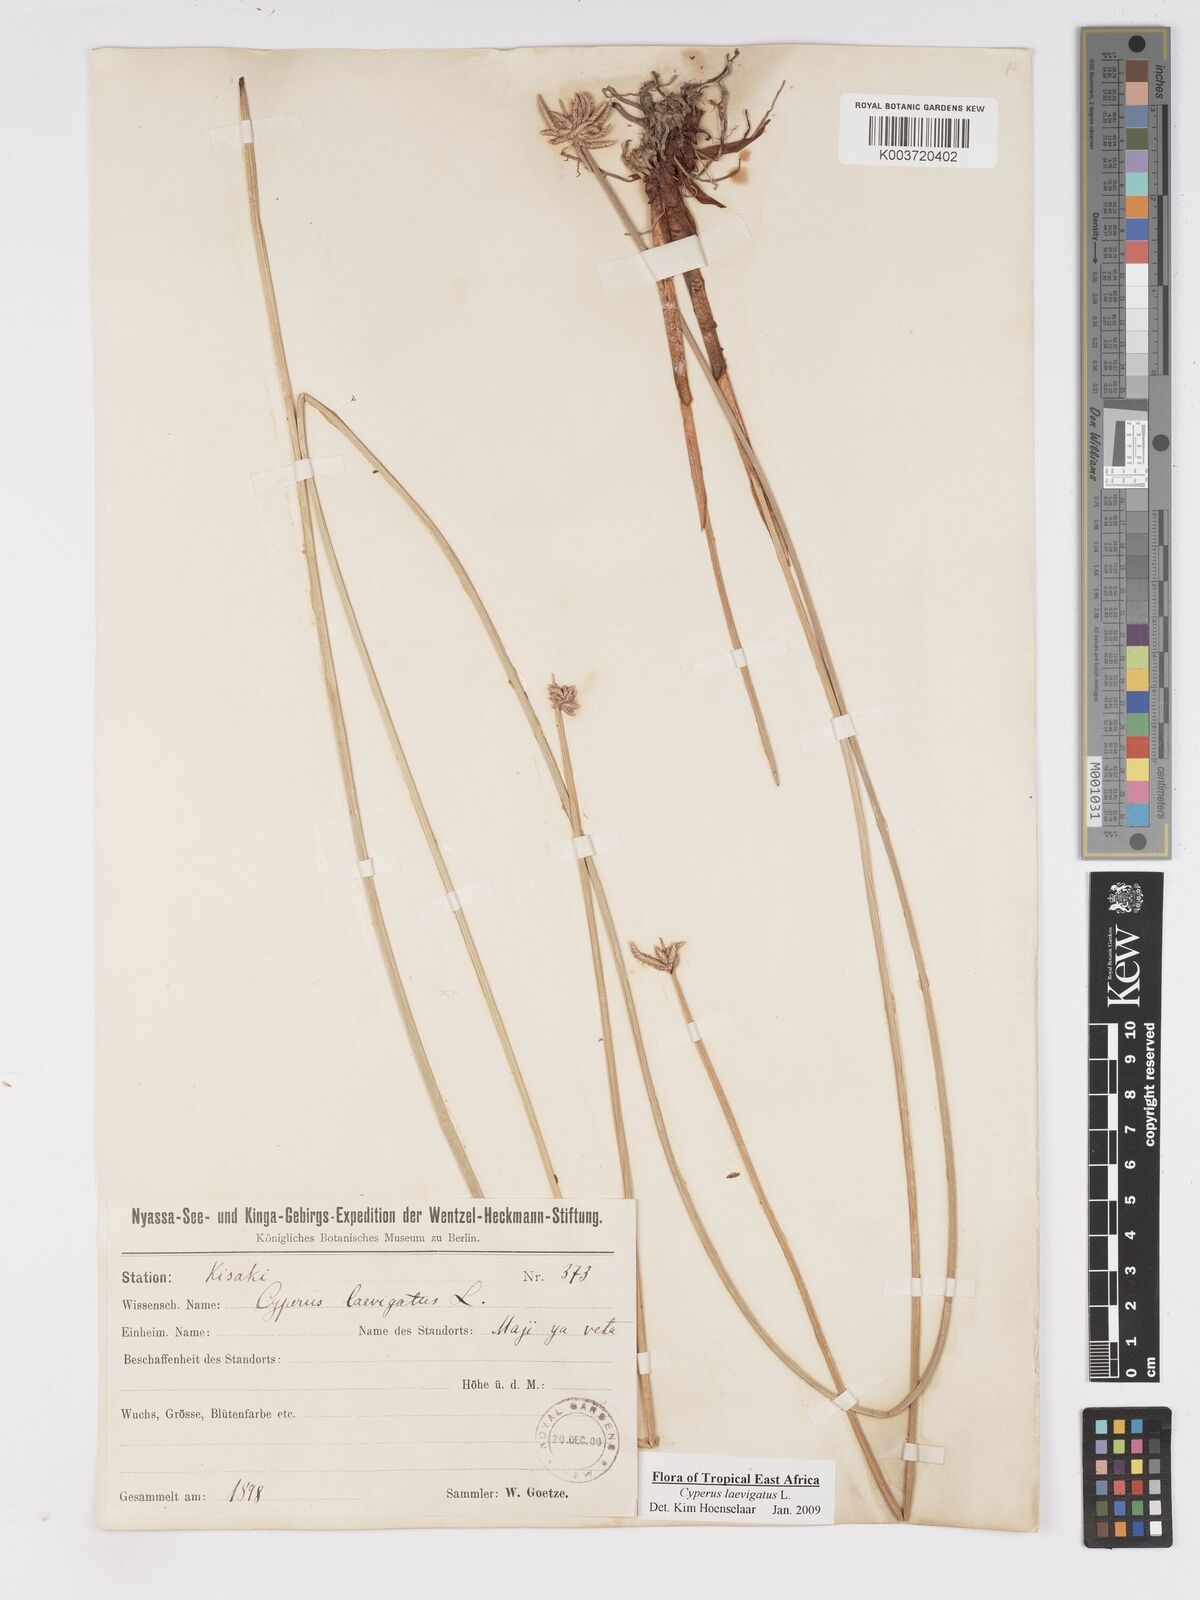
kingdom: Plantae
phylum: Tracheophyta
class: Liliopsida
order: Poales
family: Cyperaceae
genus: Cyperus
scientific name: Cyperus laevigatus
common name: Smooth flat sedge
